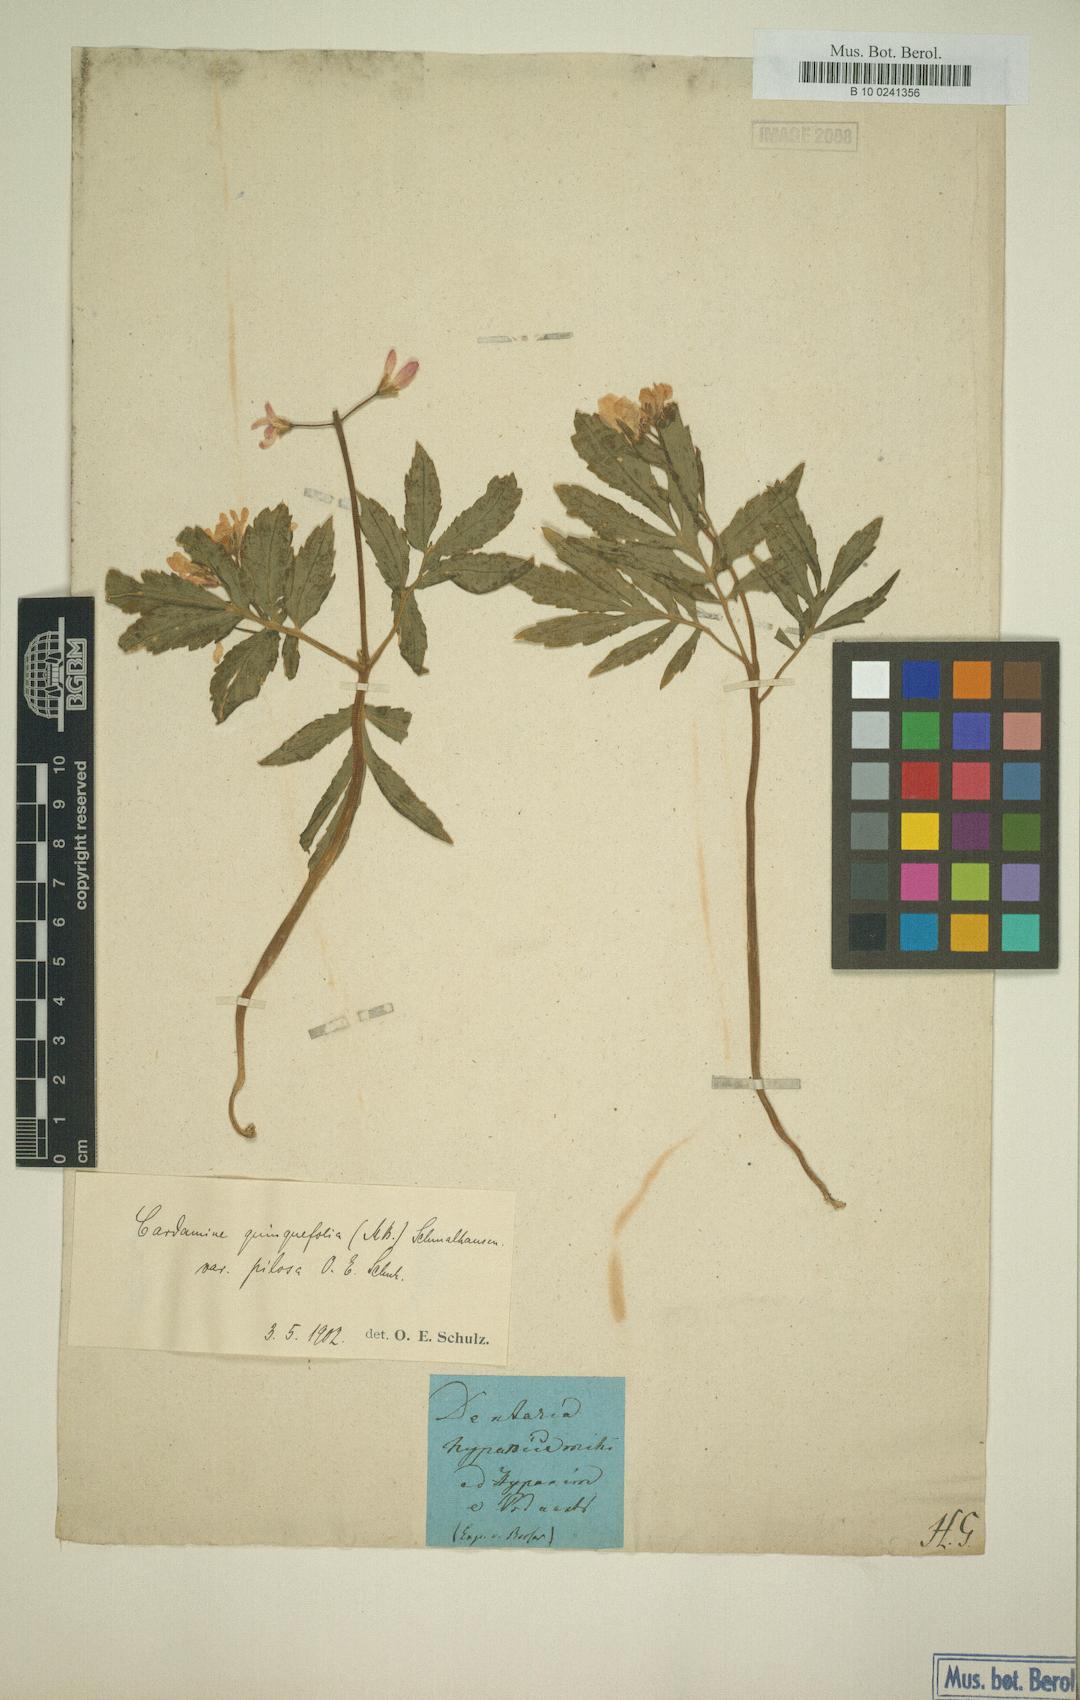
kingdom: Plantae
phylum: Tracheophyta
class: Magnoliopsida
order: Brassicales
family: Brassicaceae
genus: Cardamine
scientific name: Cardamine quinquefolia
